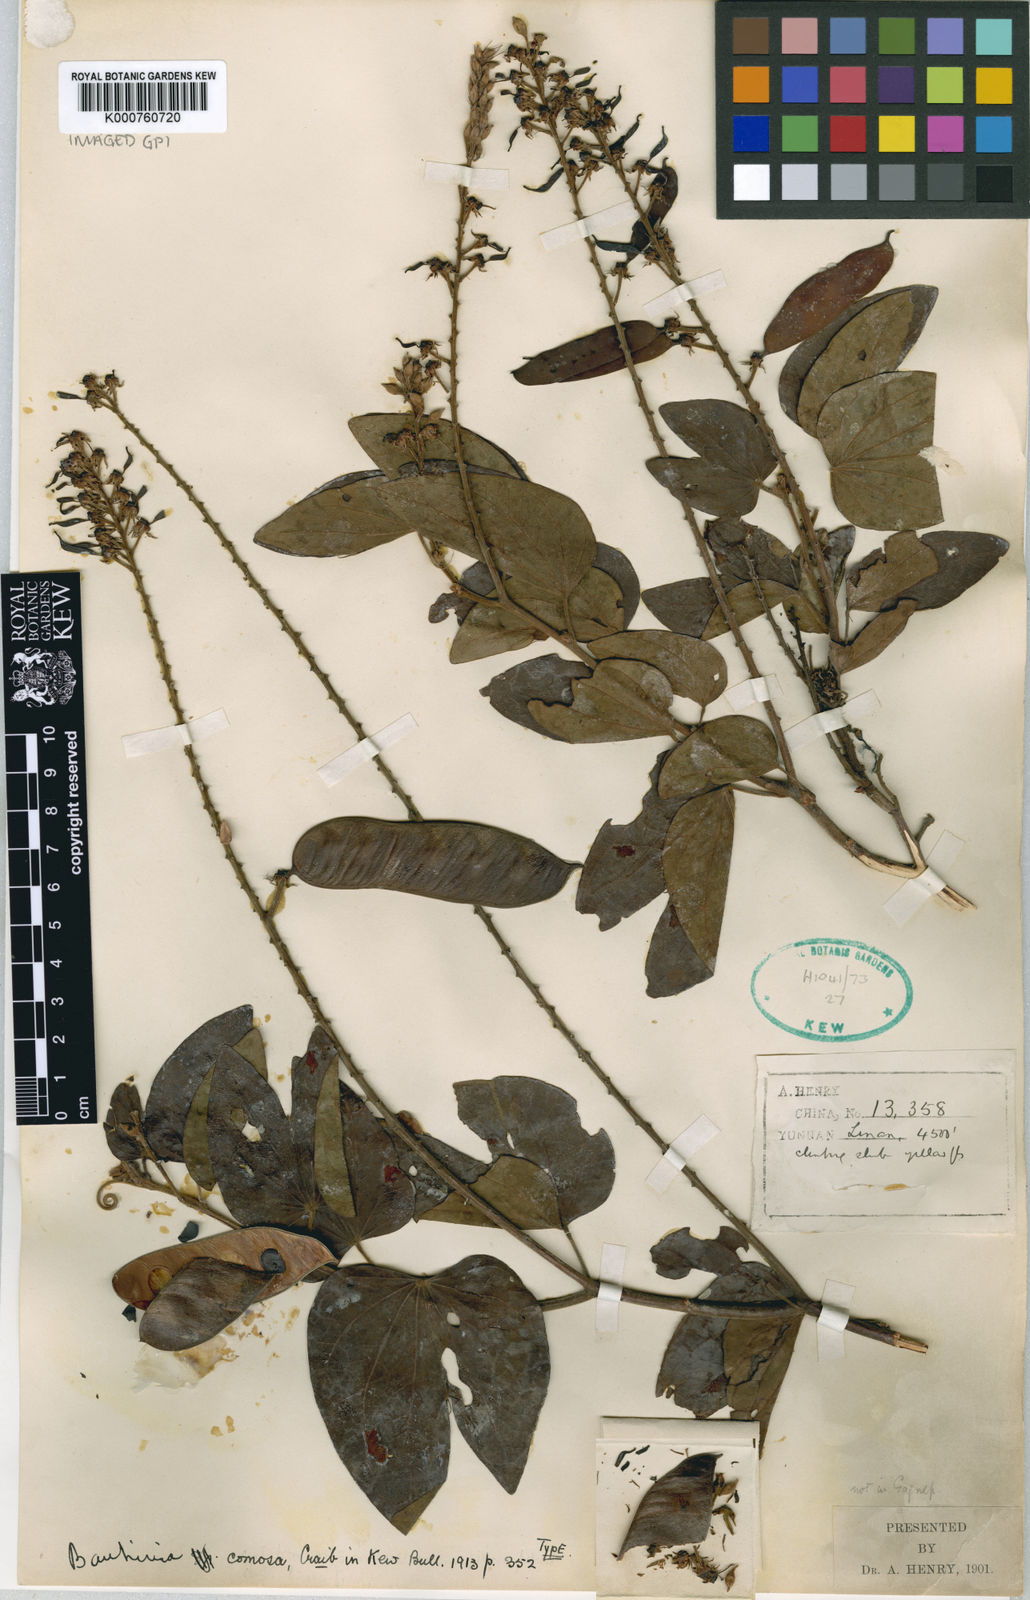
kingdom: Plantae
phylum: Tracheophyta
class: Magnoliopsida
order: Fabales
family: Fabaceae
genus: Phanera
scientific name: Phanera comosa
